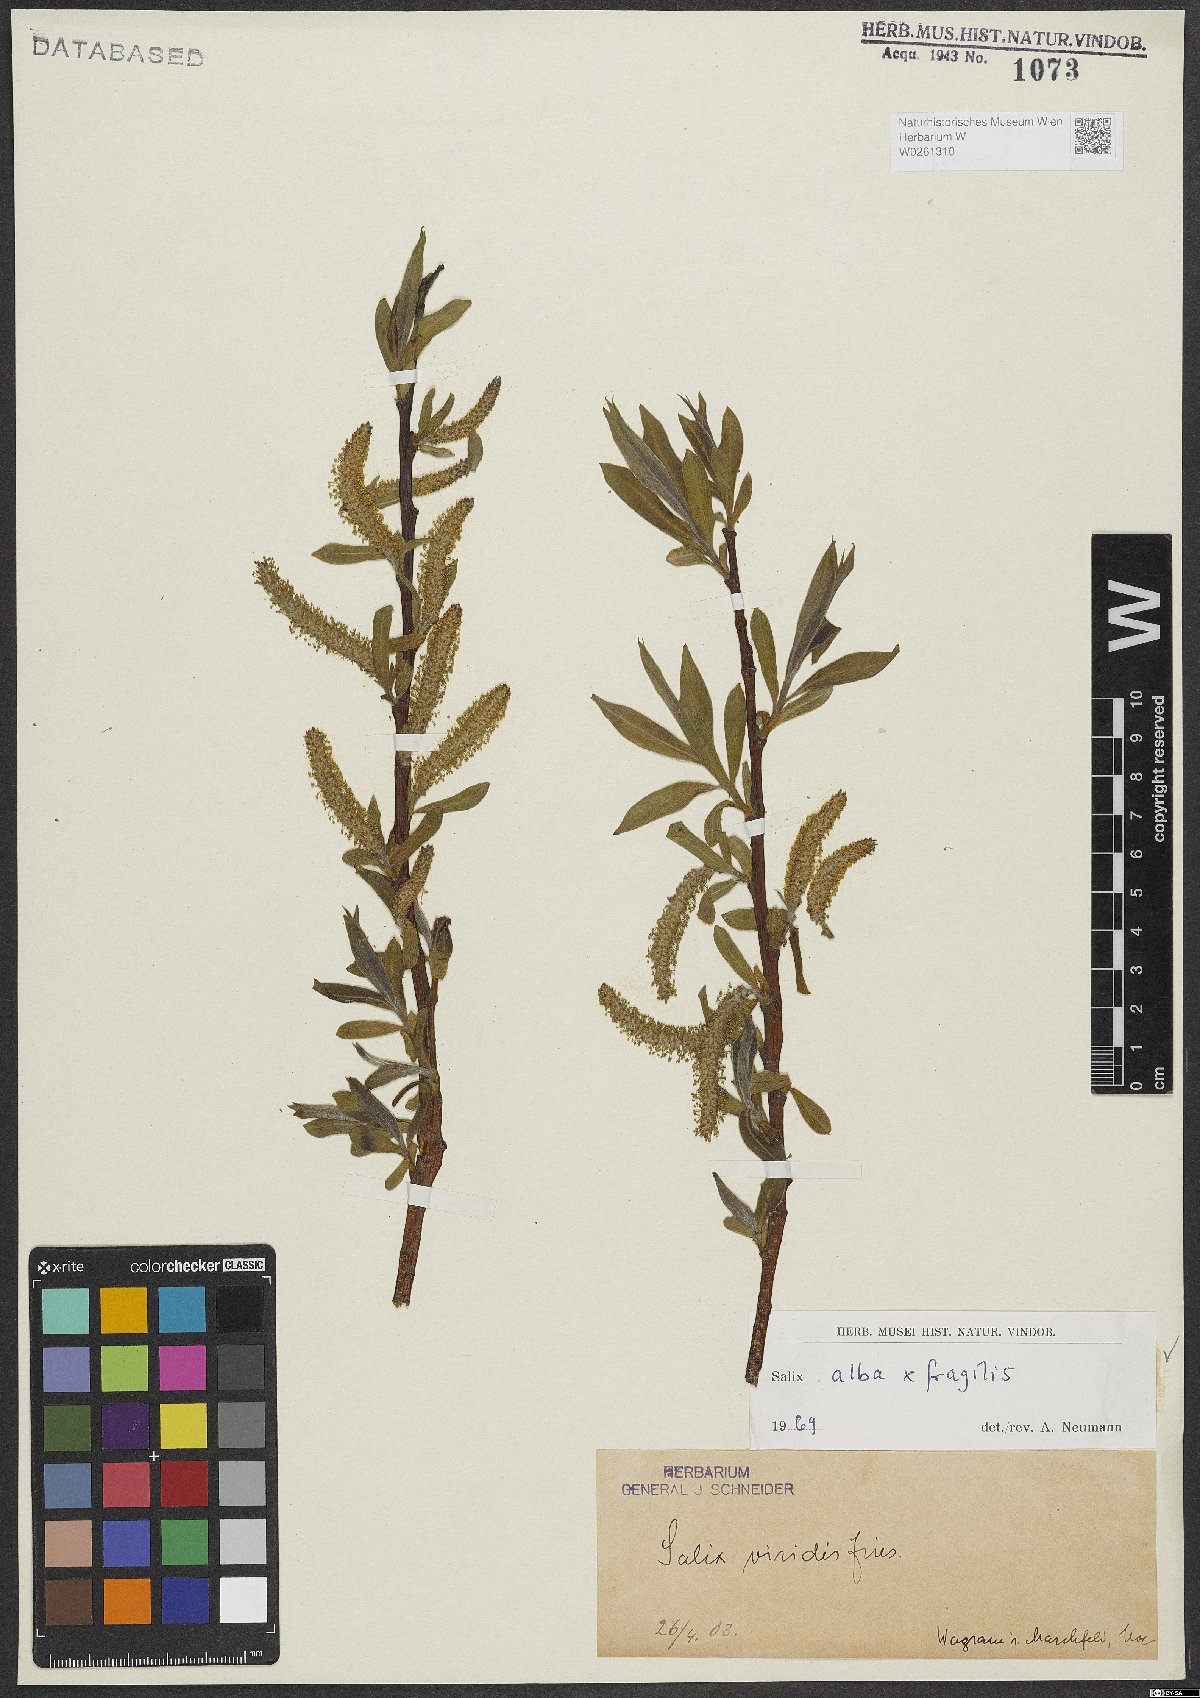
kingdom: Plantae
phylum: Tracheophyta
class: Magnoliopsida
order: Malpighiales
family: Salicaceae
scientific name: Salicaceae
